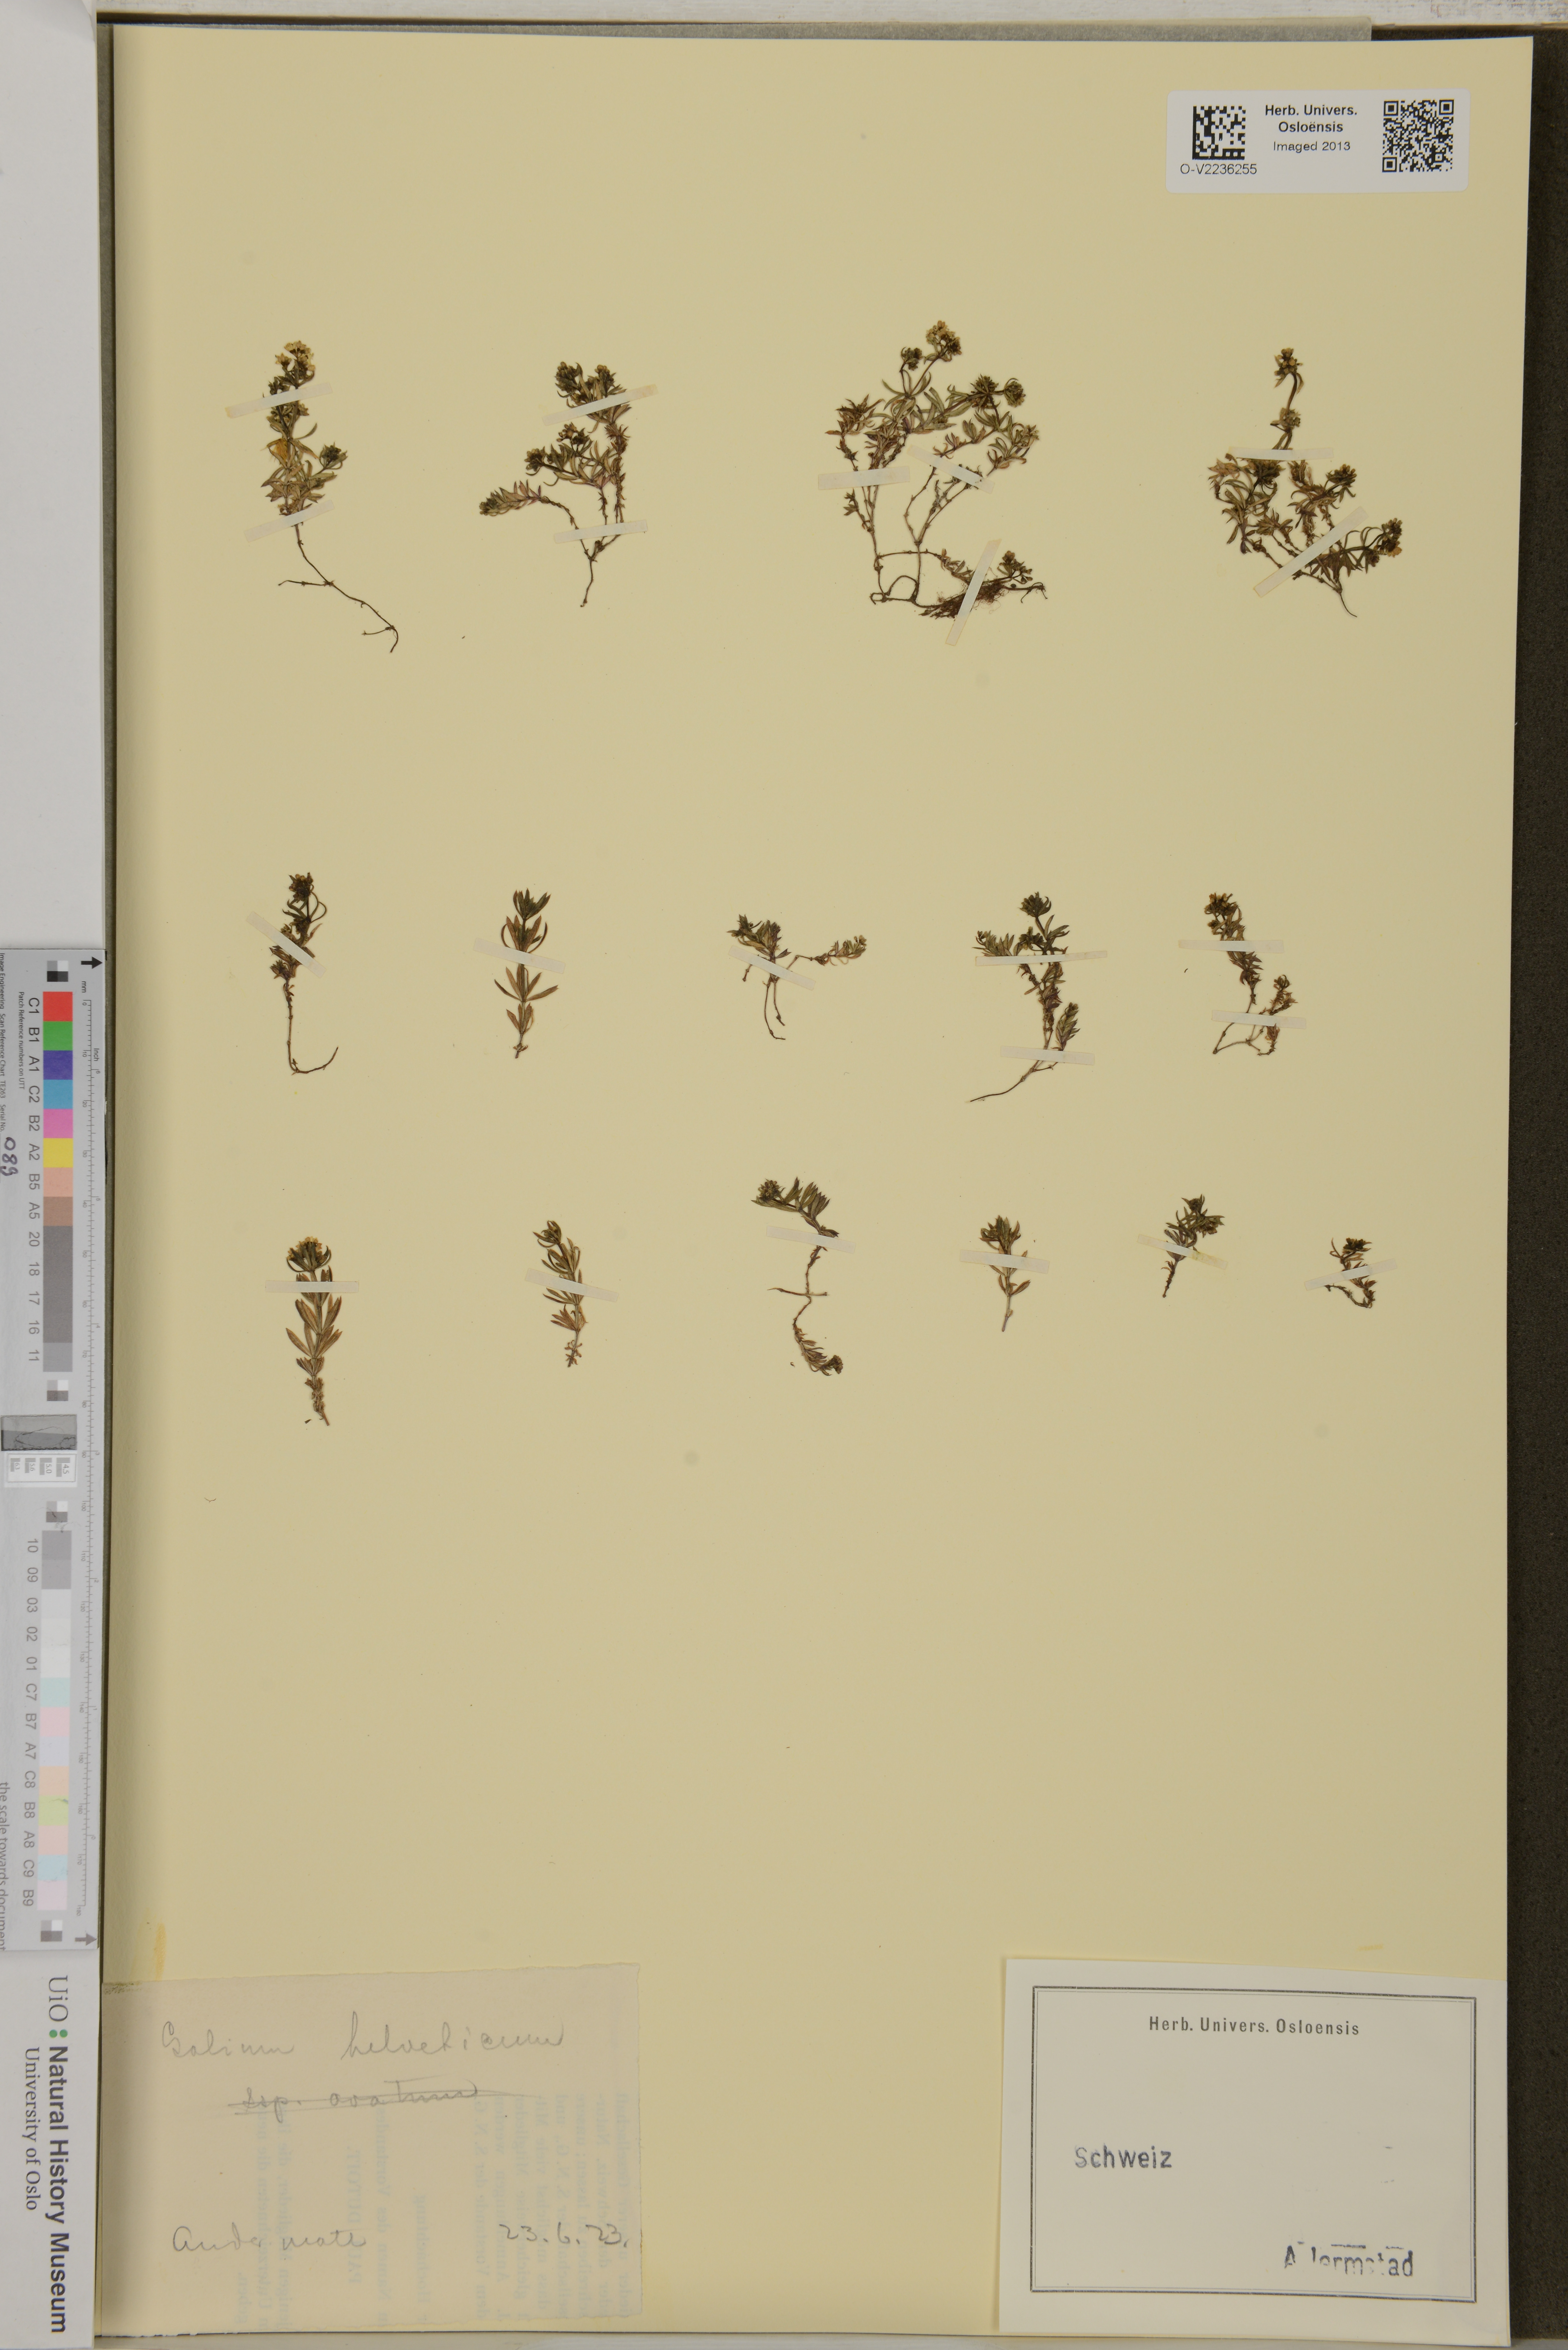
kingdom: Plantae
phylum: Tracheophyta
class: Magnoliopsida
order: Gentianales
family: Rubiaceae
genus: Galium
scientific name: Galium saxatile
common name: Heath bedstraw
